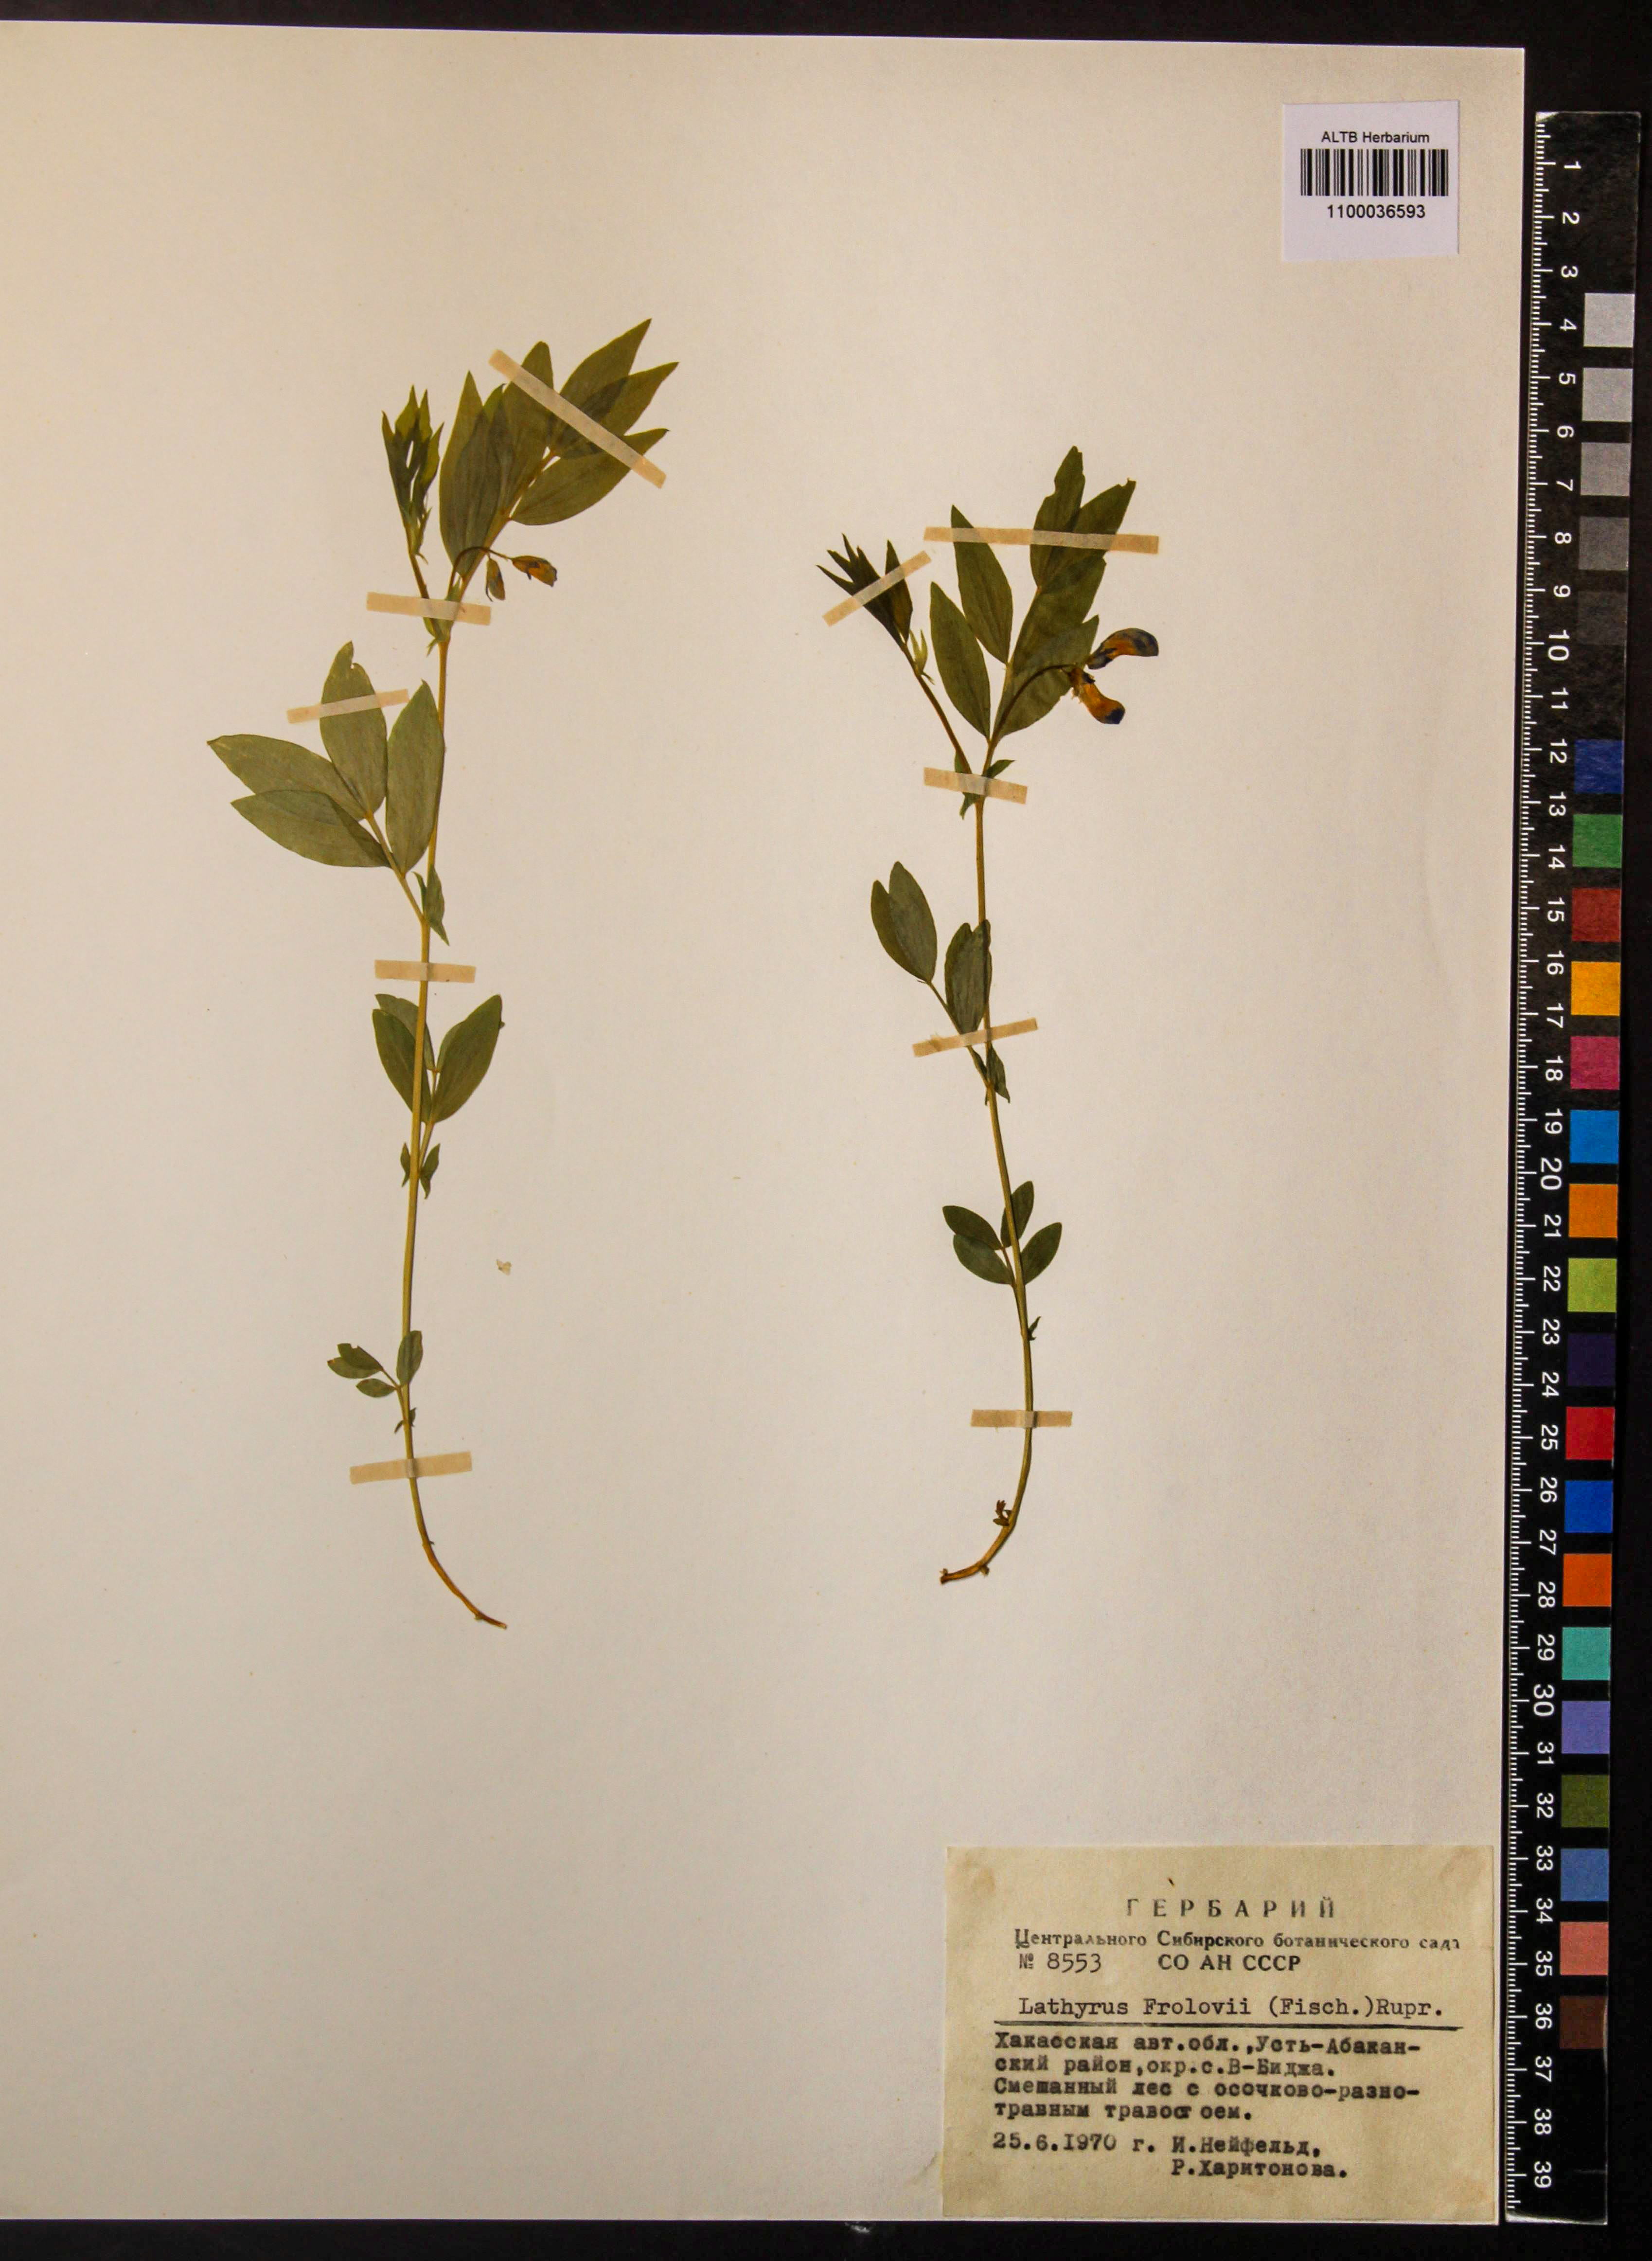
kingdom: Plantae
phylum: Tracheophyta
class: Magnoliopsida
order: Fabales
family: Fabaceae
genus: Lathyrus
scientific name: Lathyrus frolovii
